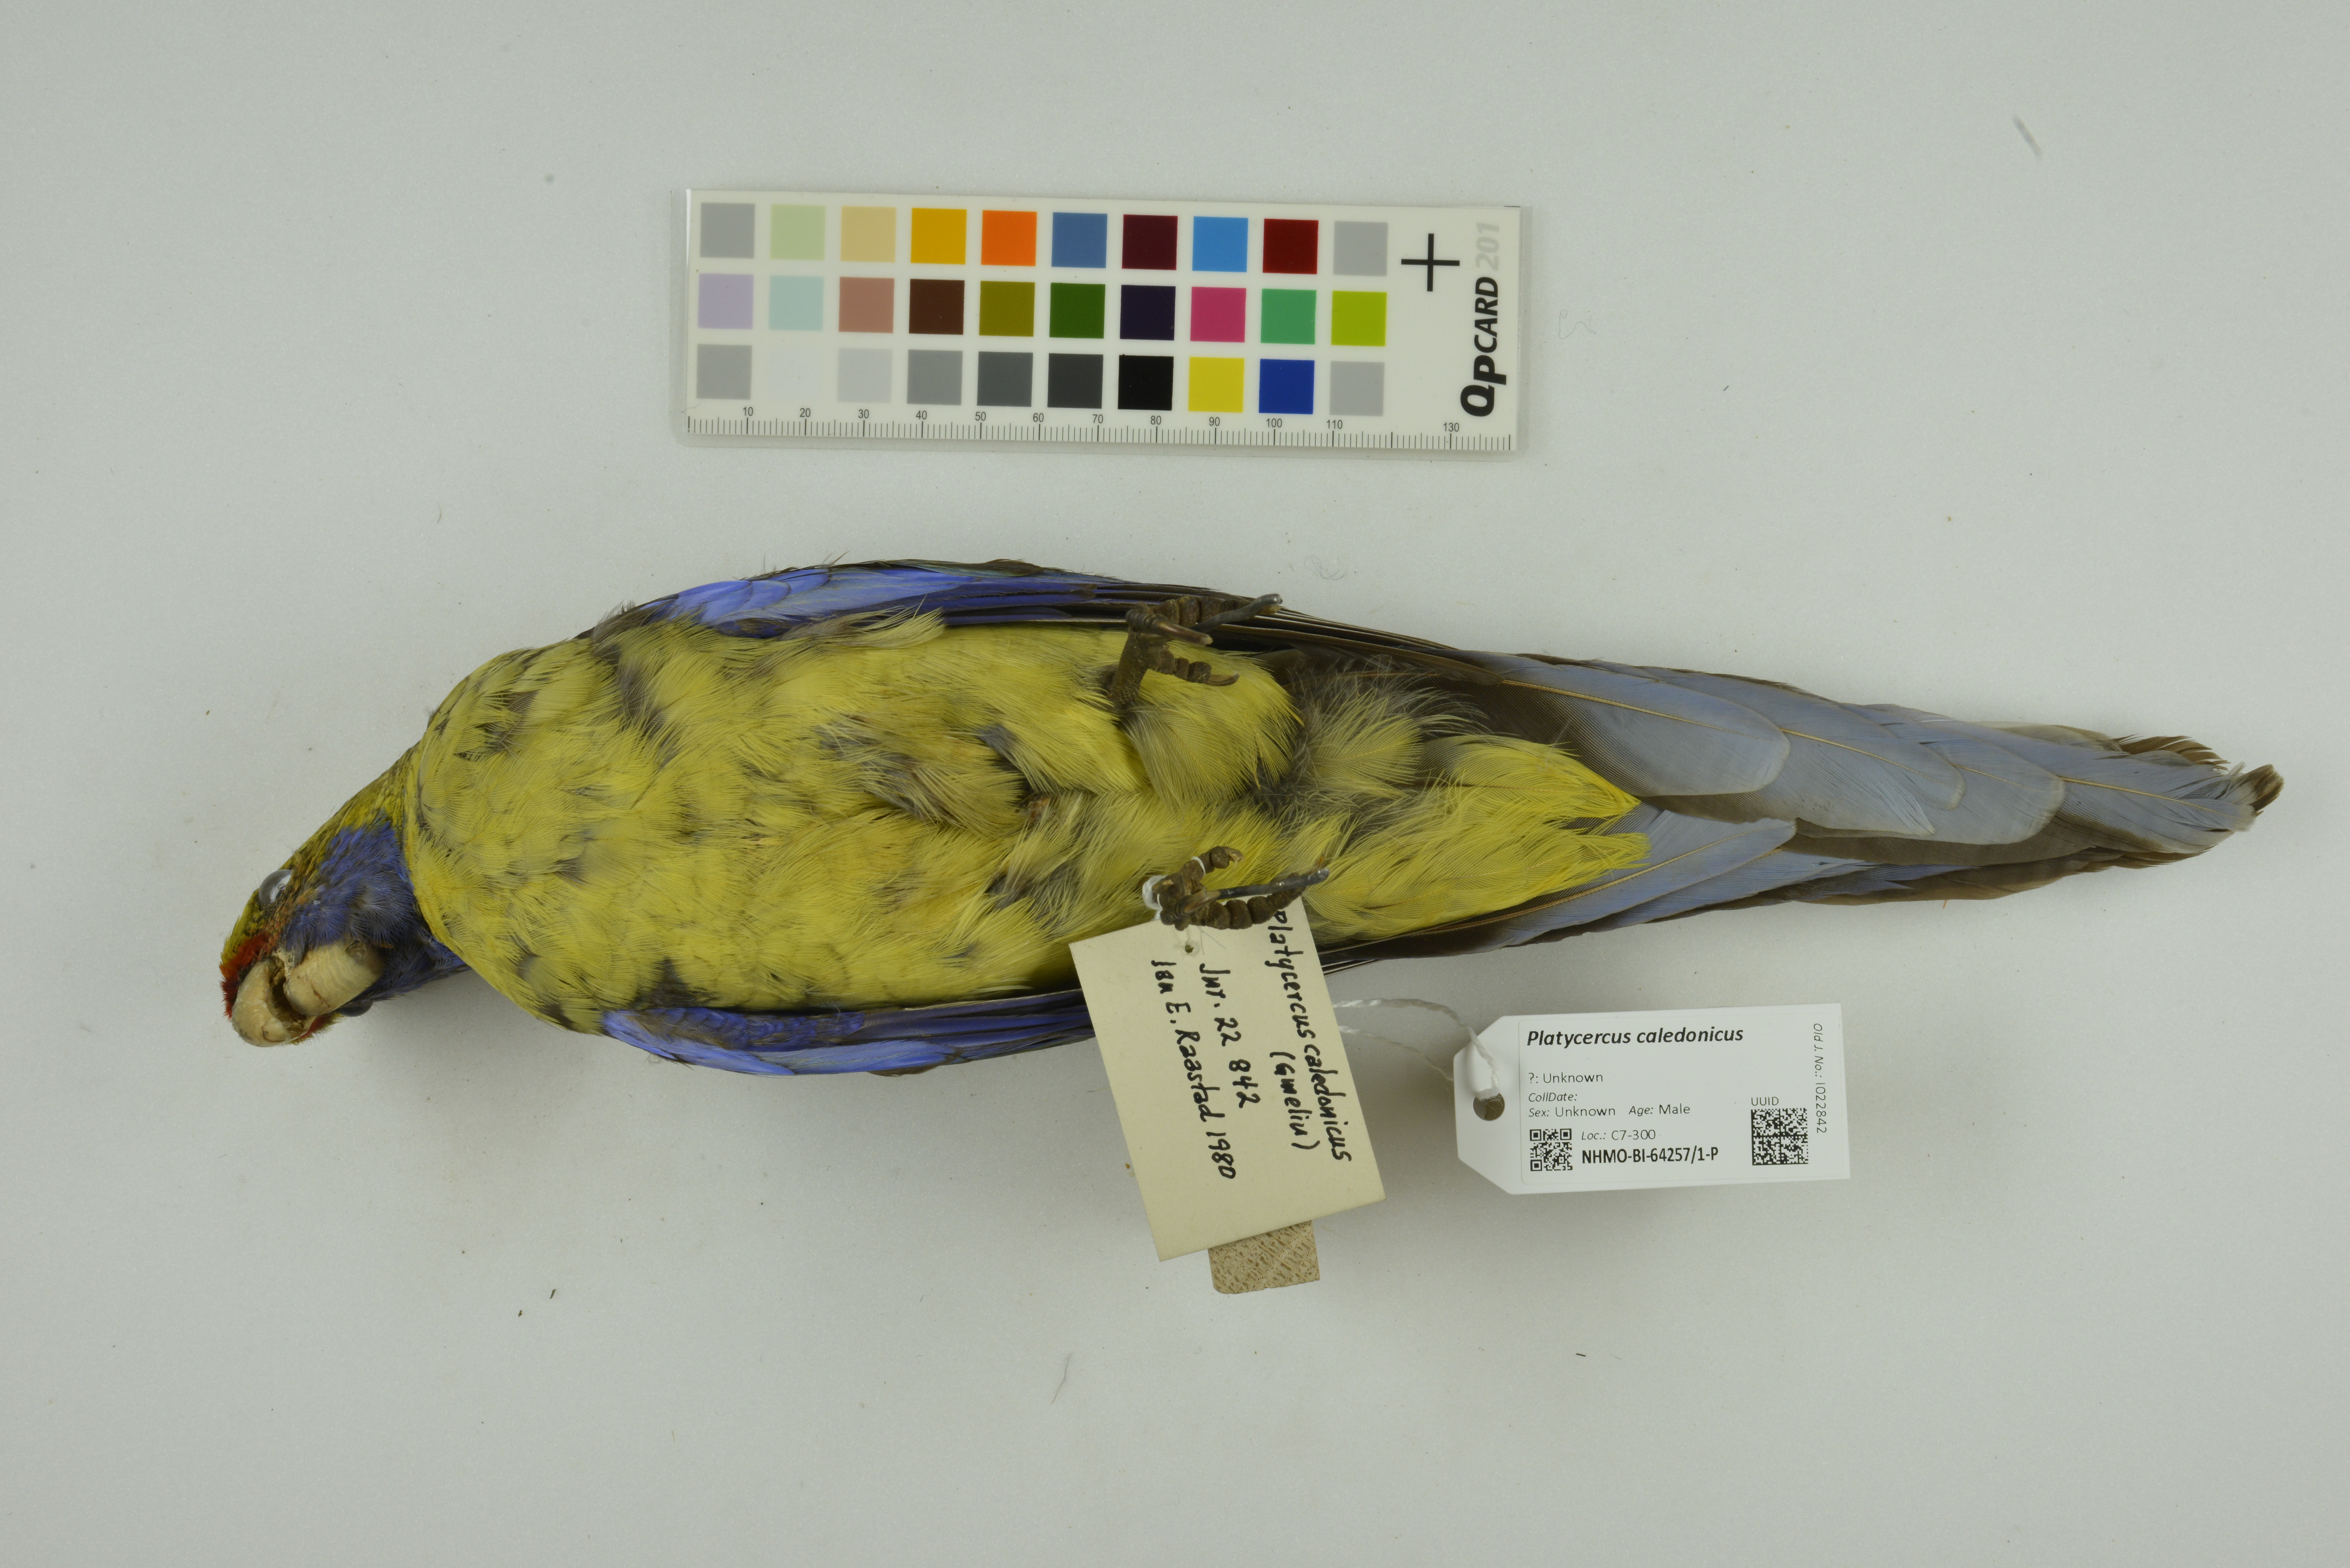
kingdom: Animalia
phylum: Chordata
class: Aves
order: Psittaciformes
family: Psittacidae
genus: Platycercus
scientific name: Platycercus caledonicus
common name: Green rosella
